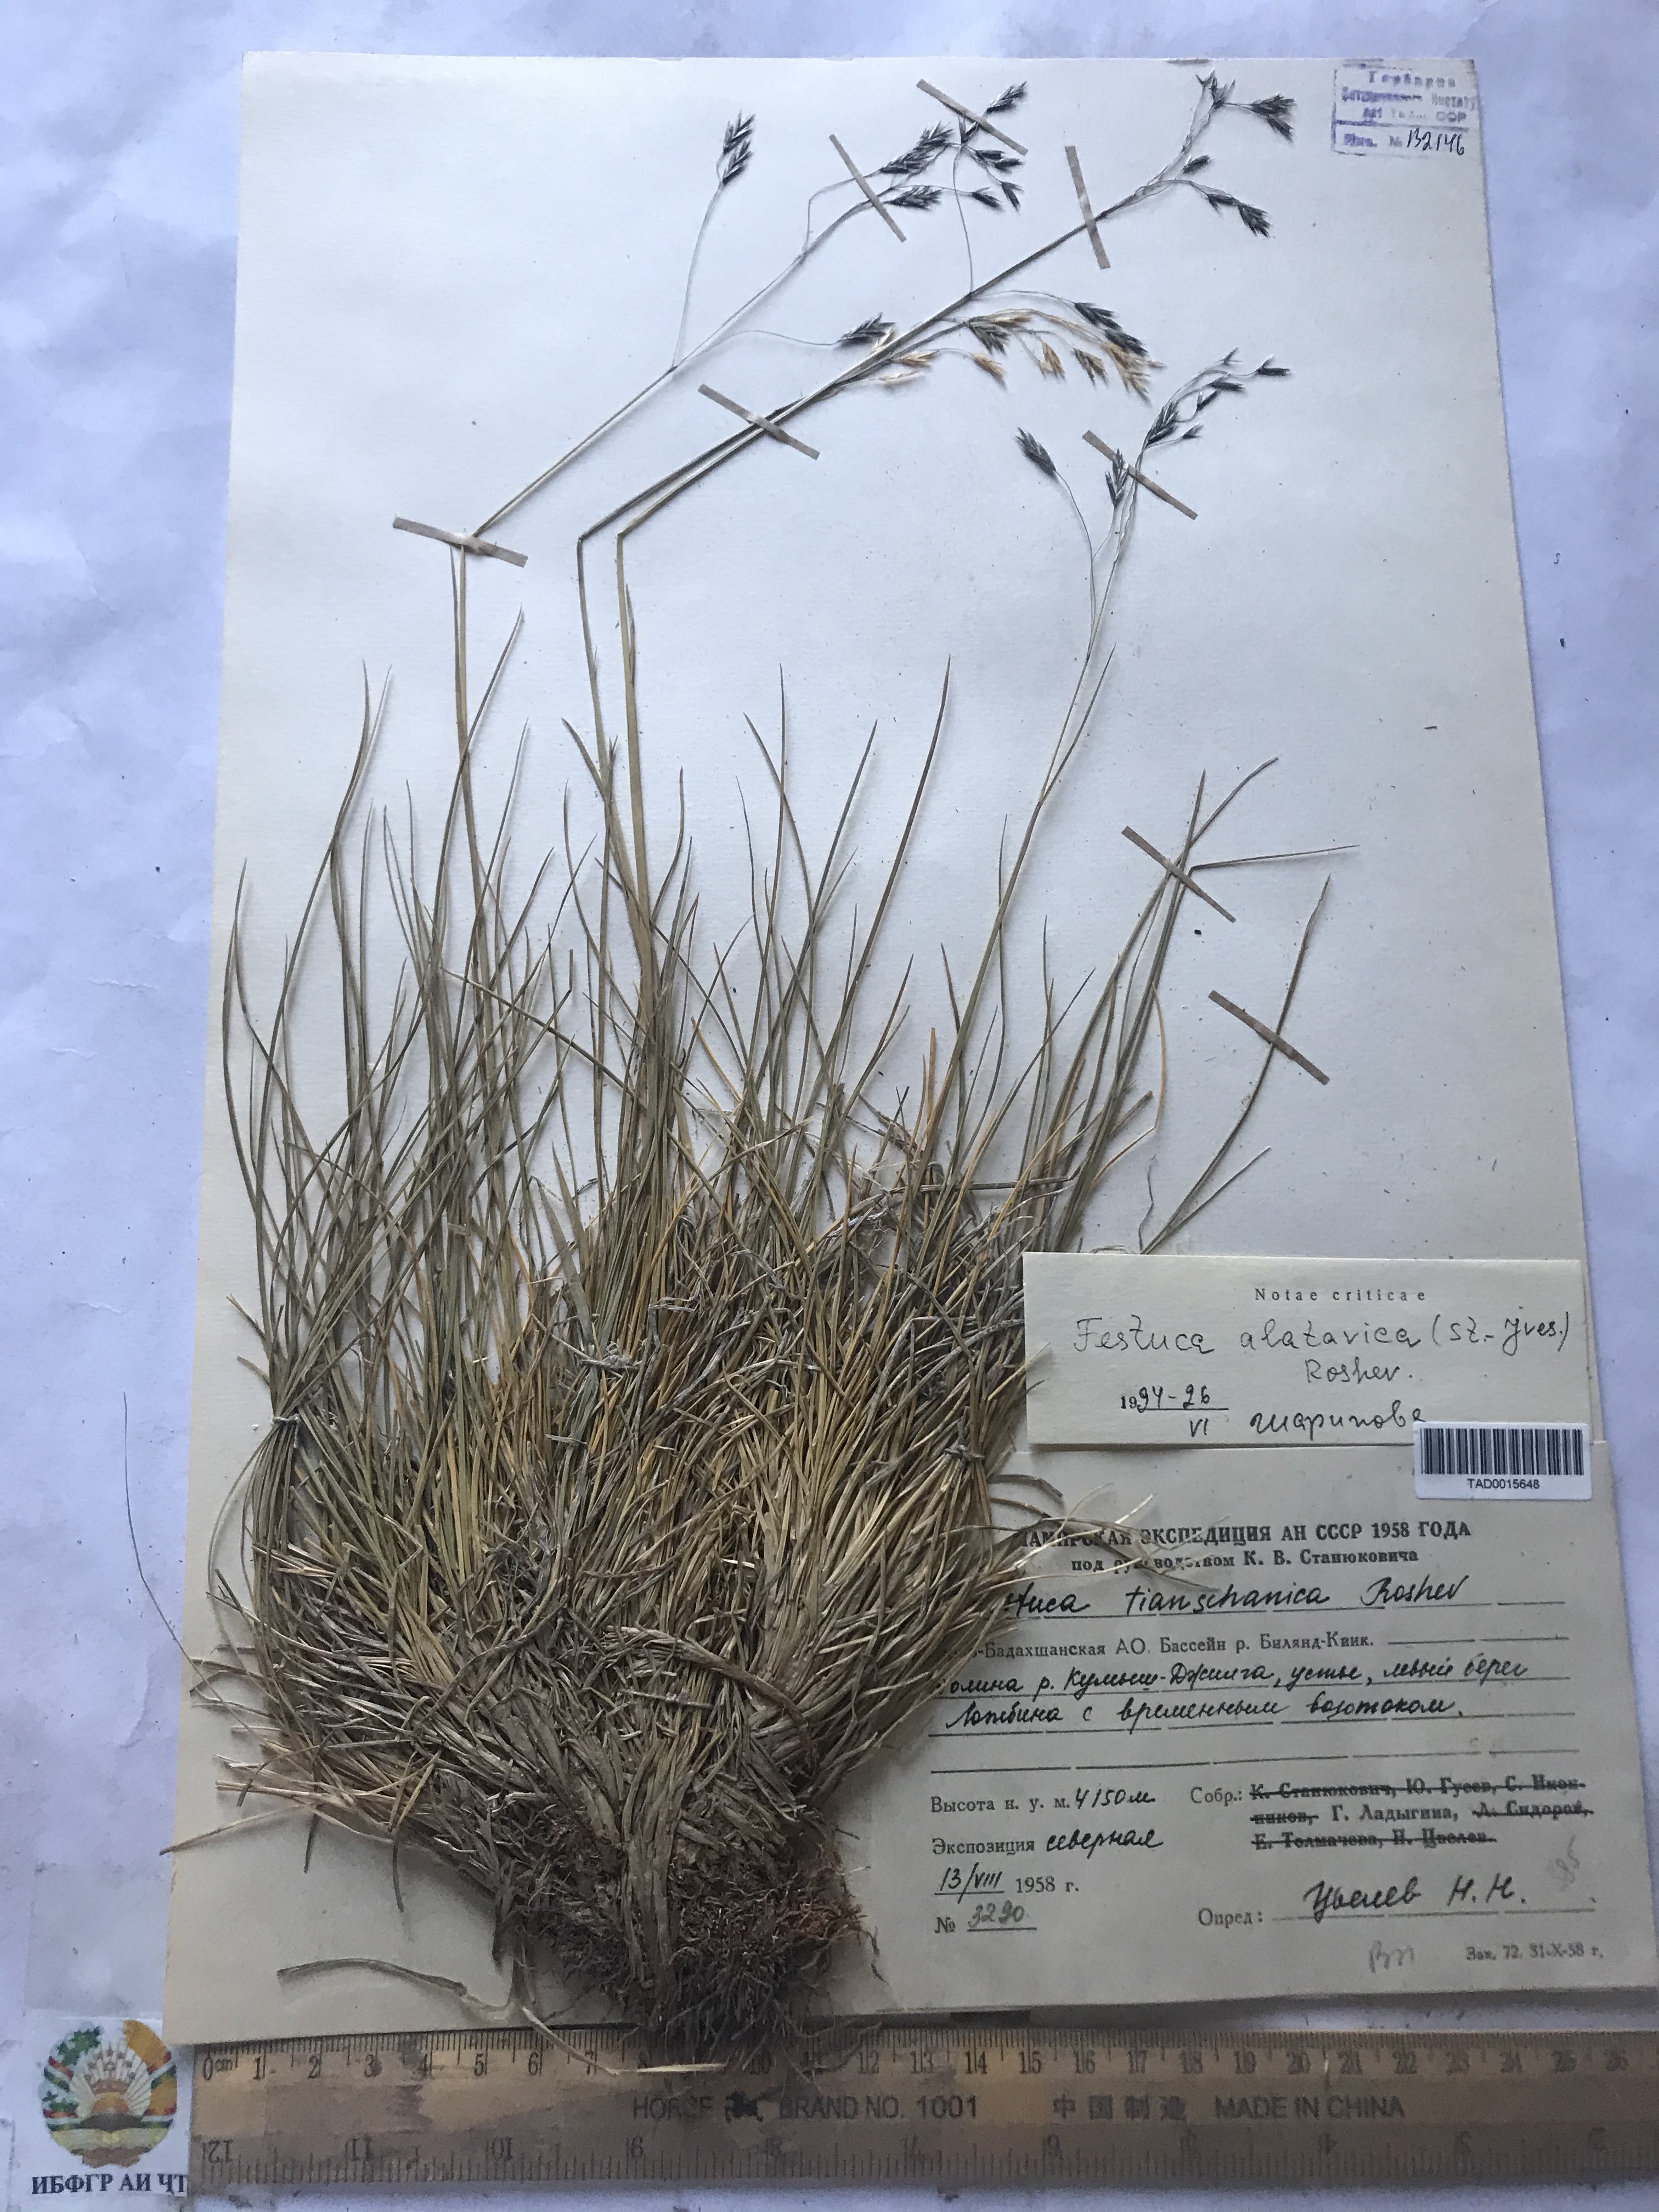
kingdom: Plantae
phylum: Tracheophyta
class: Liliopsida
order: Poales
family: Poaceae
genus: Festuca
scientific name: Festuca alatavica
